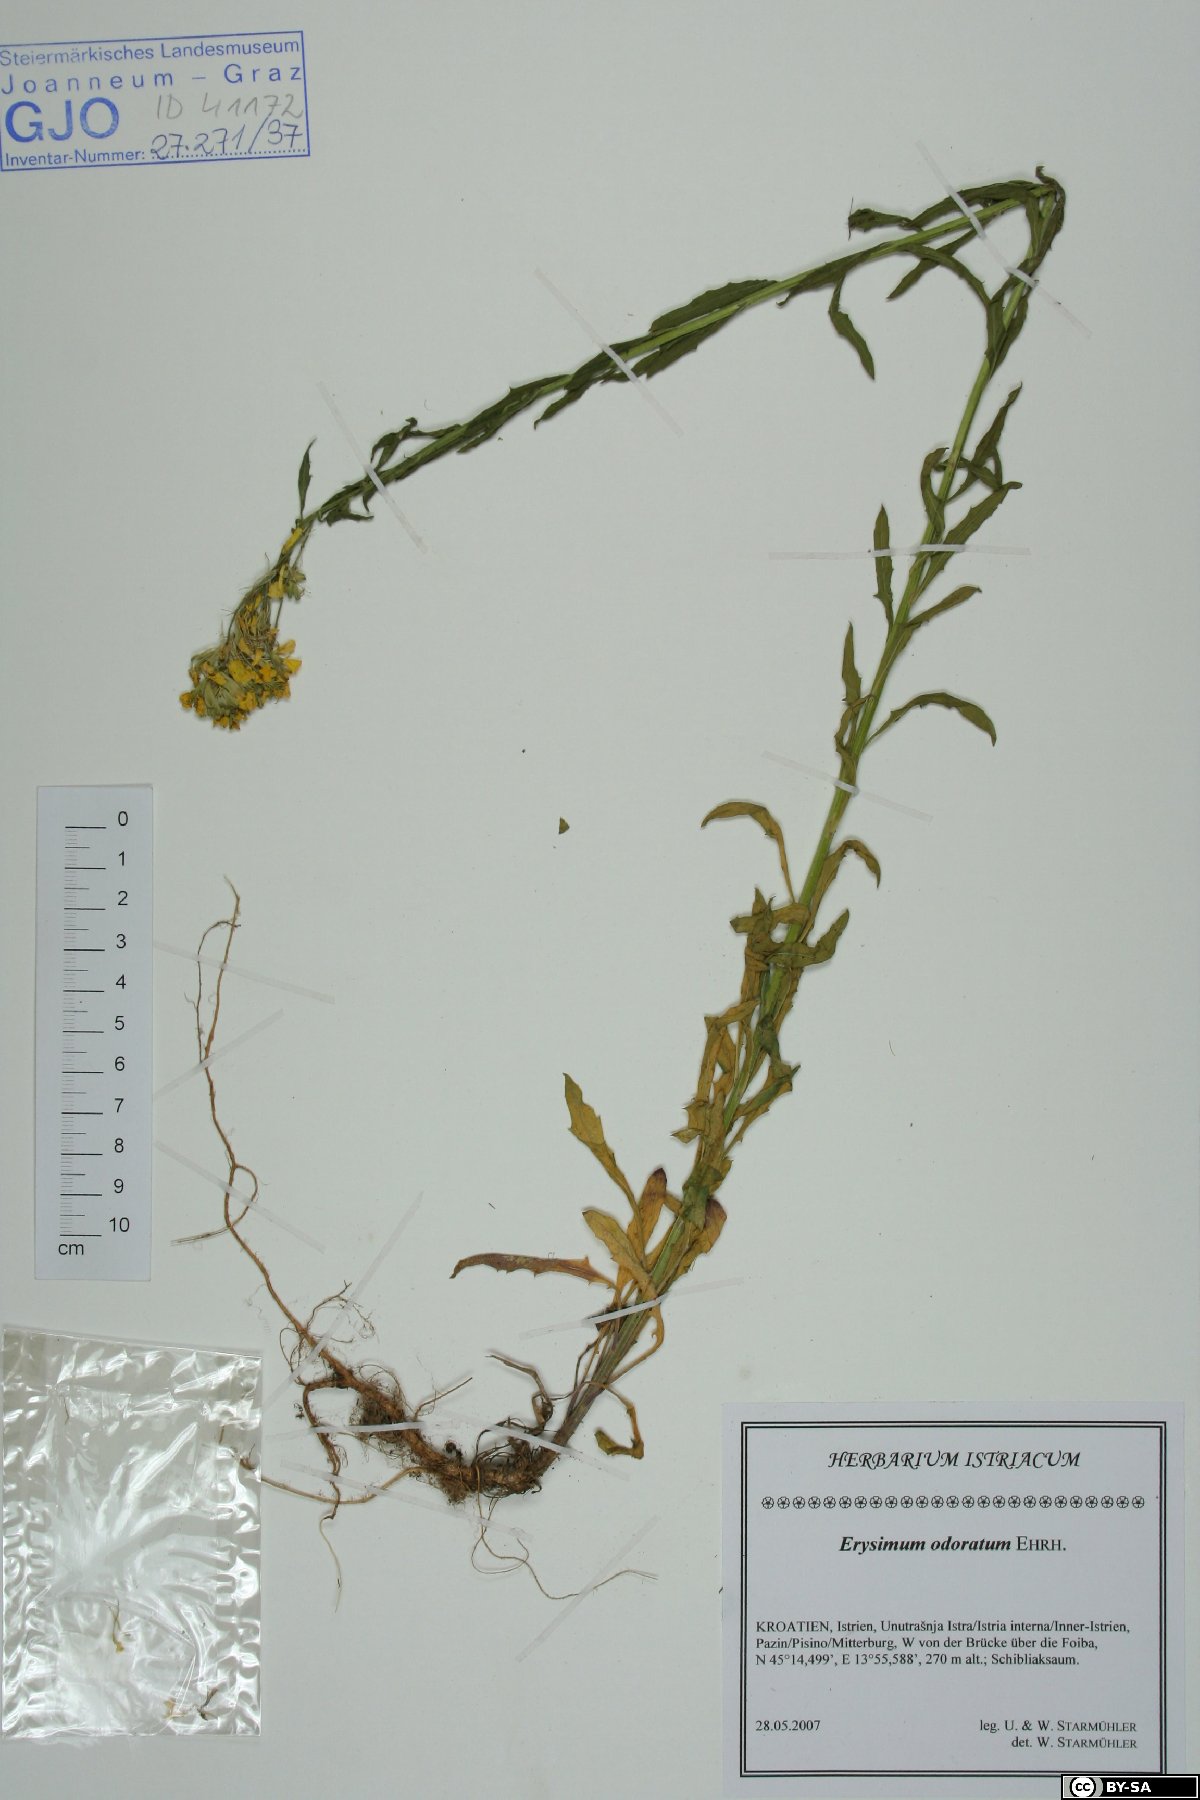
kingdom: Plantae
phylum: Tracheophyta
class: Magnoliopsida
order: Brassicales
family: Brassicaceae
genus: Erysimum
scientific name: Erysimum odoratum
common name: Smelly wallflower
